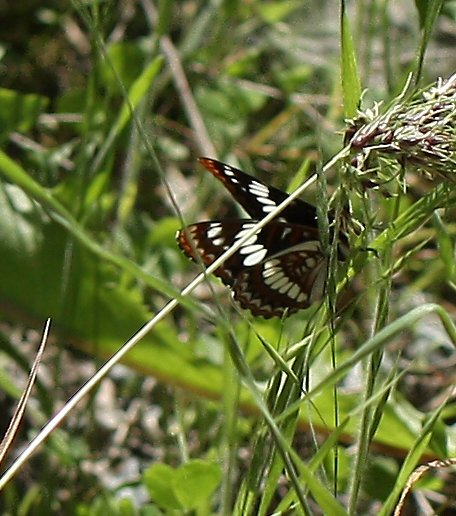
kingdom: Animalia
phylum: Arthropoda
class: Insecta
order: Lepidoptera
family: Nymphalidae
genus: Limenitis
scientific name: Limenitis lorquini
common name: Lorquin's Admiral
